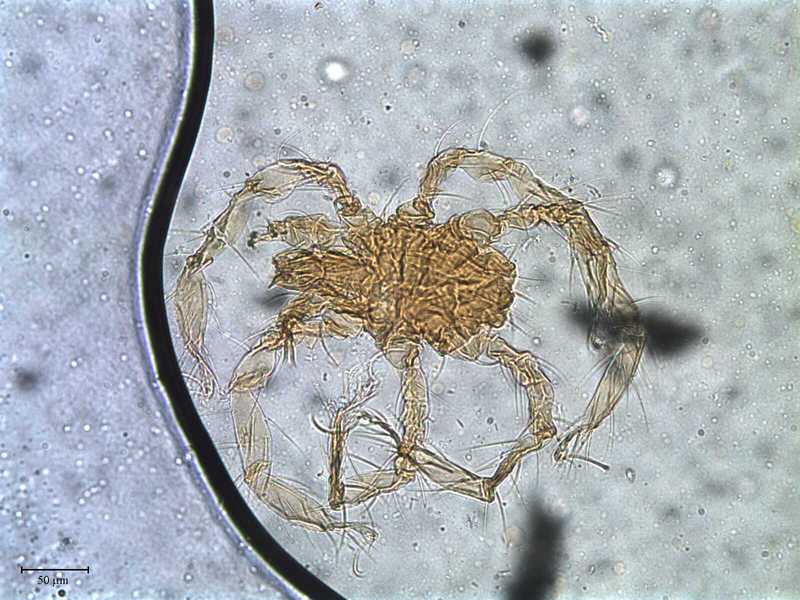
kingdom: Animalia
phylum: Arthropoda
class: Arachnida
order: Trombidiformes
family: Hydryphantidae
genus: Hydryphantes
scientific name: Hydryphantes
